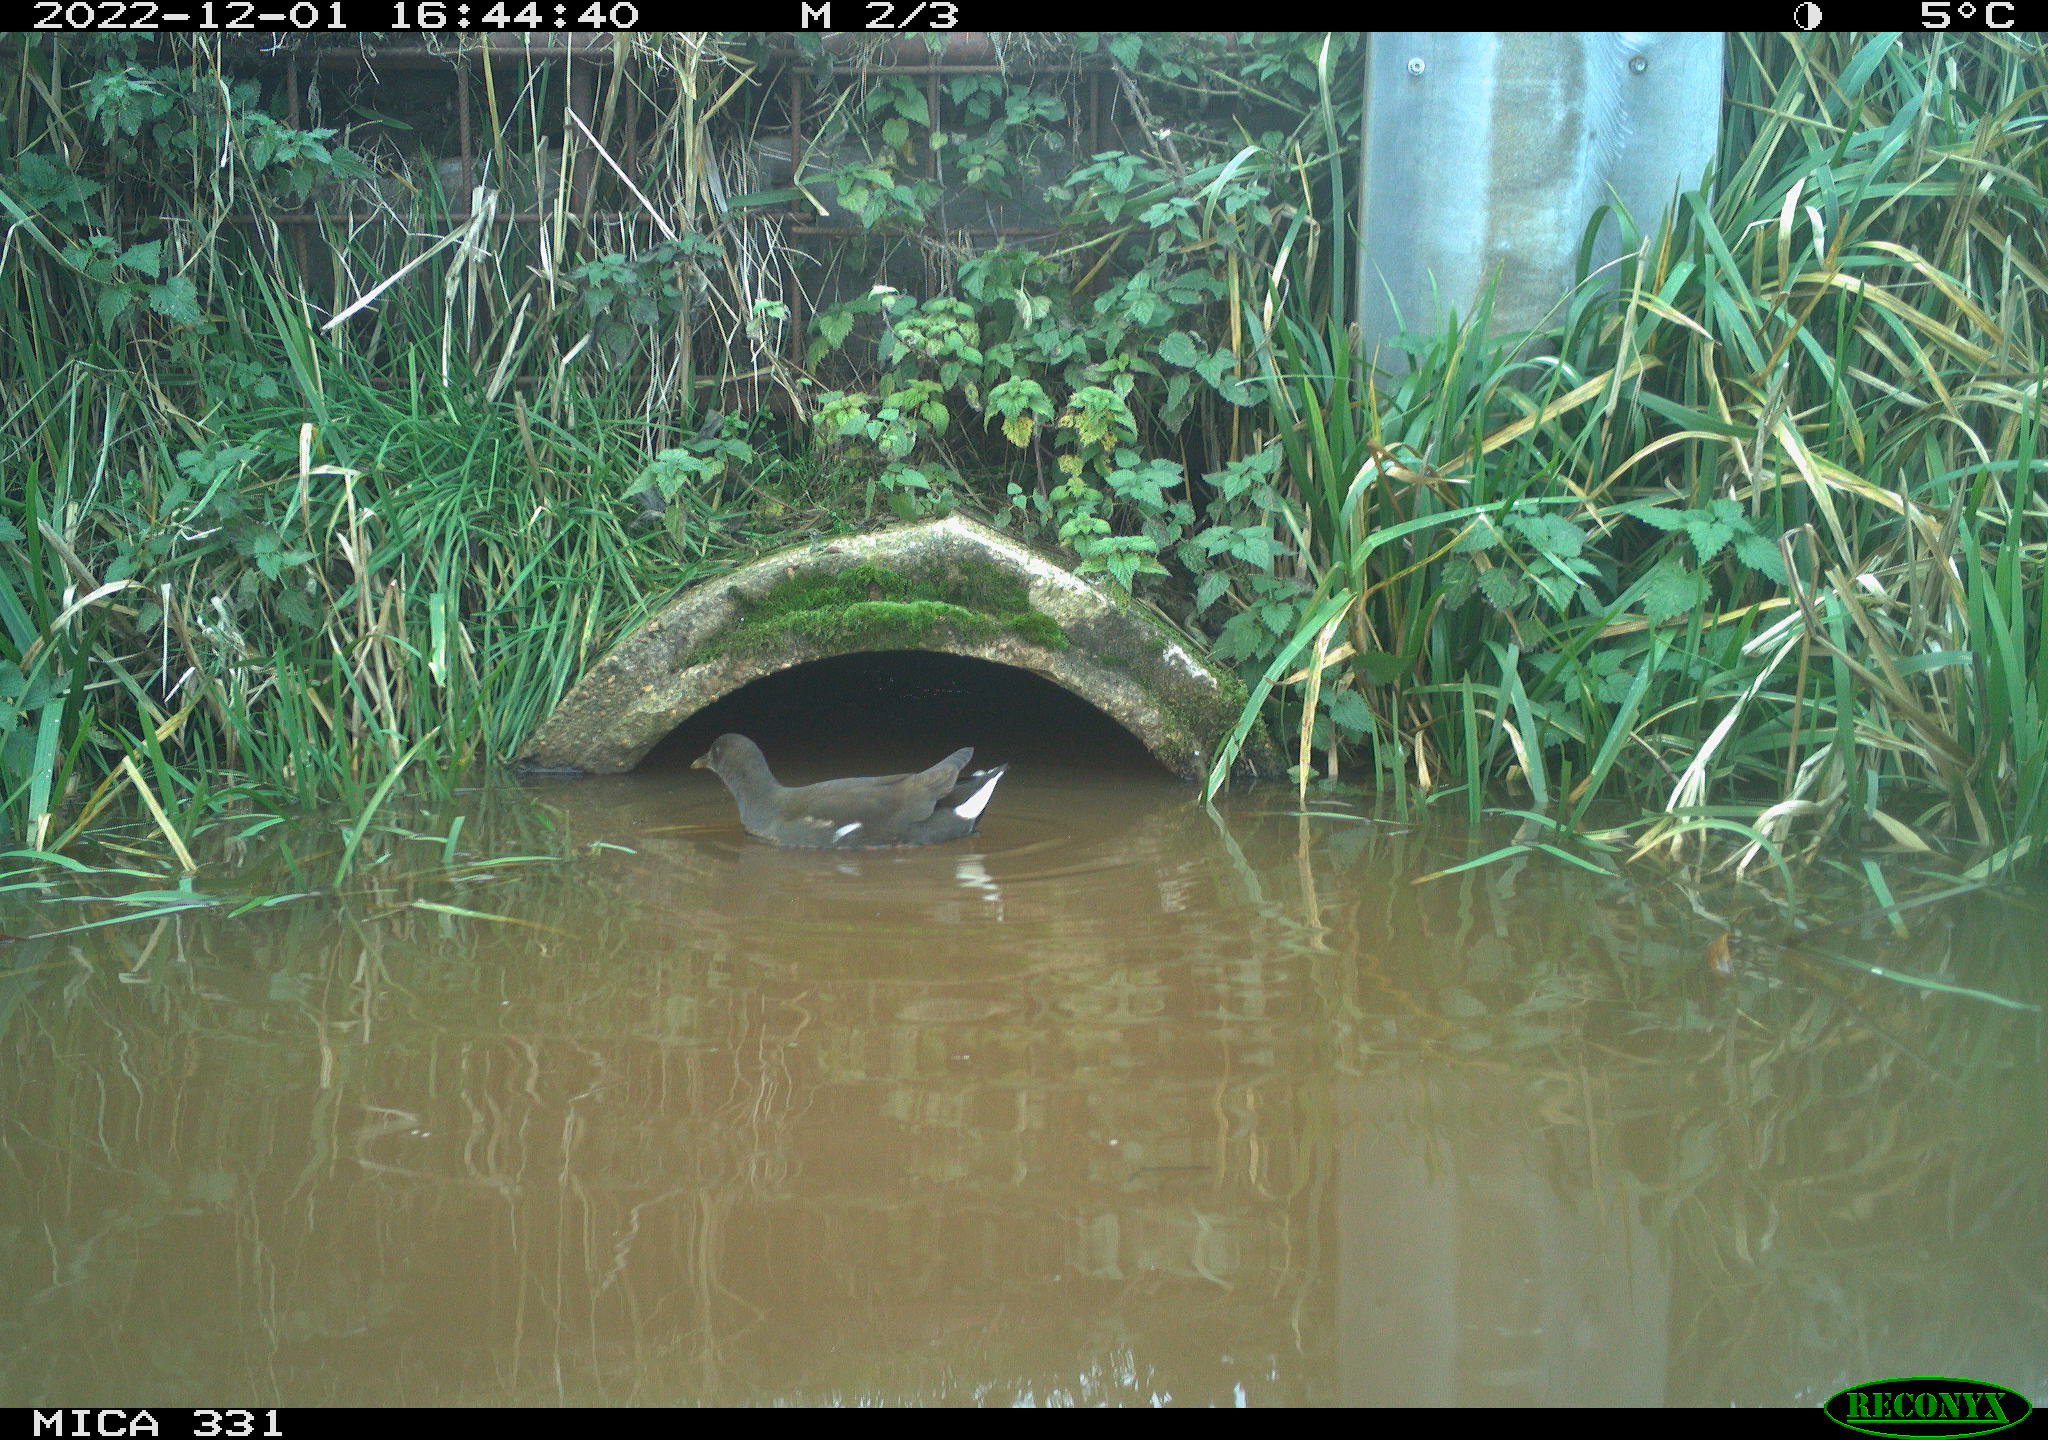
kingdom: Animalia
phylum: Chordata
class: Aves
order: Gruiformes
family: Rallidae
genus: Gallinula
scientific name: Gallinula chloropus
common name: Common moorhen
